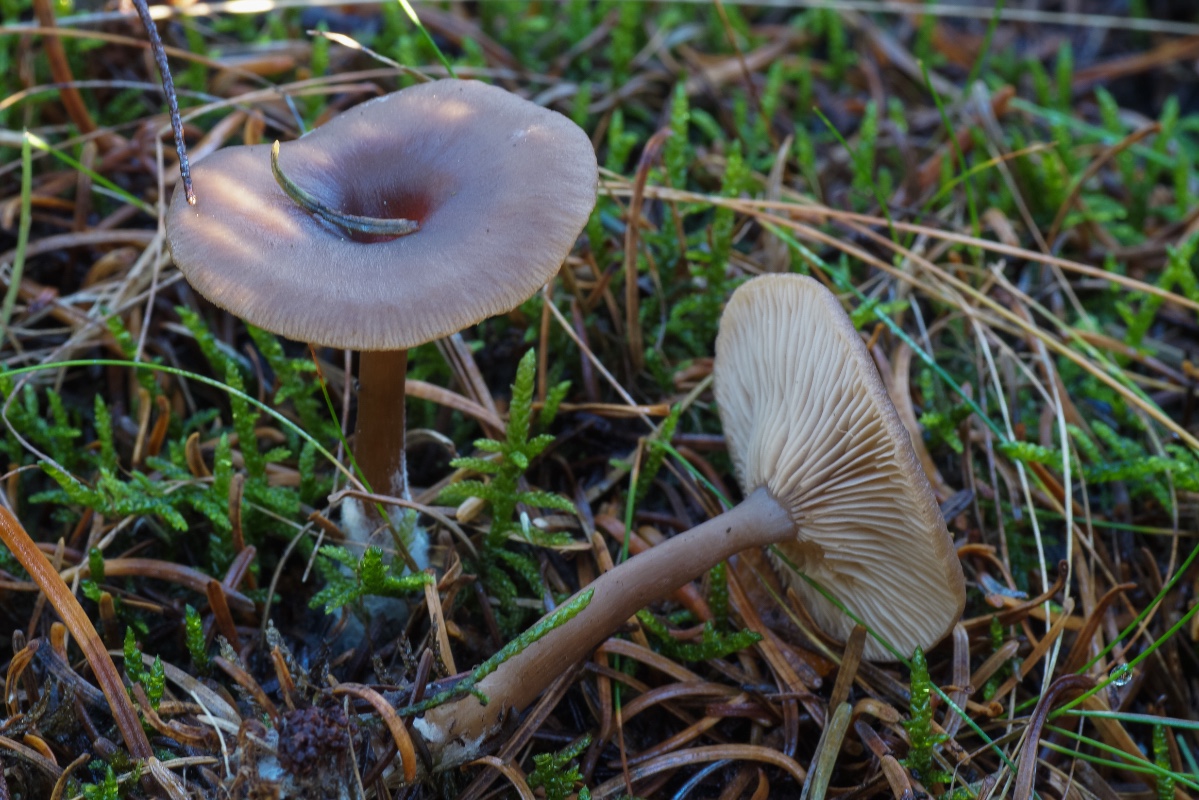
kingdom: Fungi
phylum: Basidiomycota
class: Agaricomycetes
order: Agaricales
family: Pseudoclitocybaceae
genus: Pseudoclitocybe
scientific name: Pseudoclitocybe cyathiformis
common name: almindelig bægertragthat
